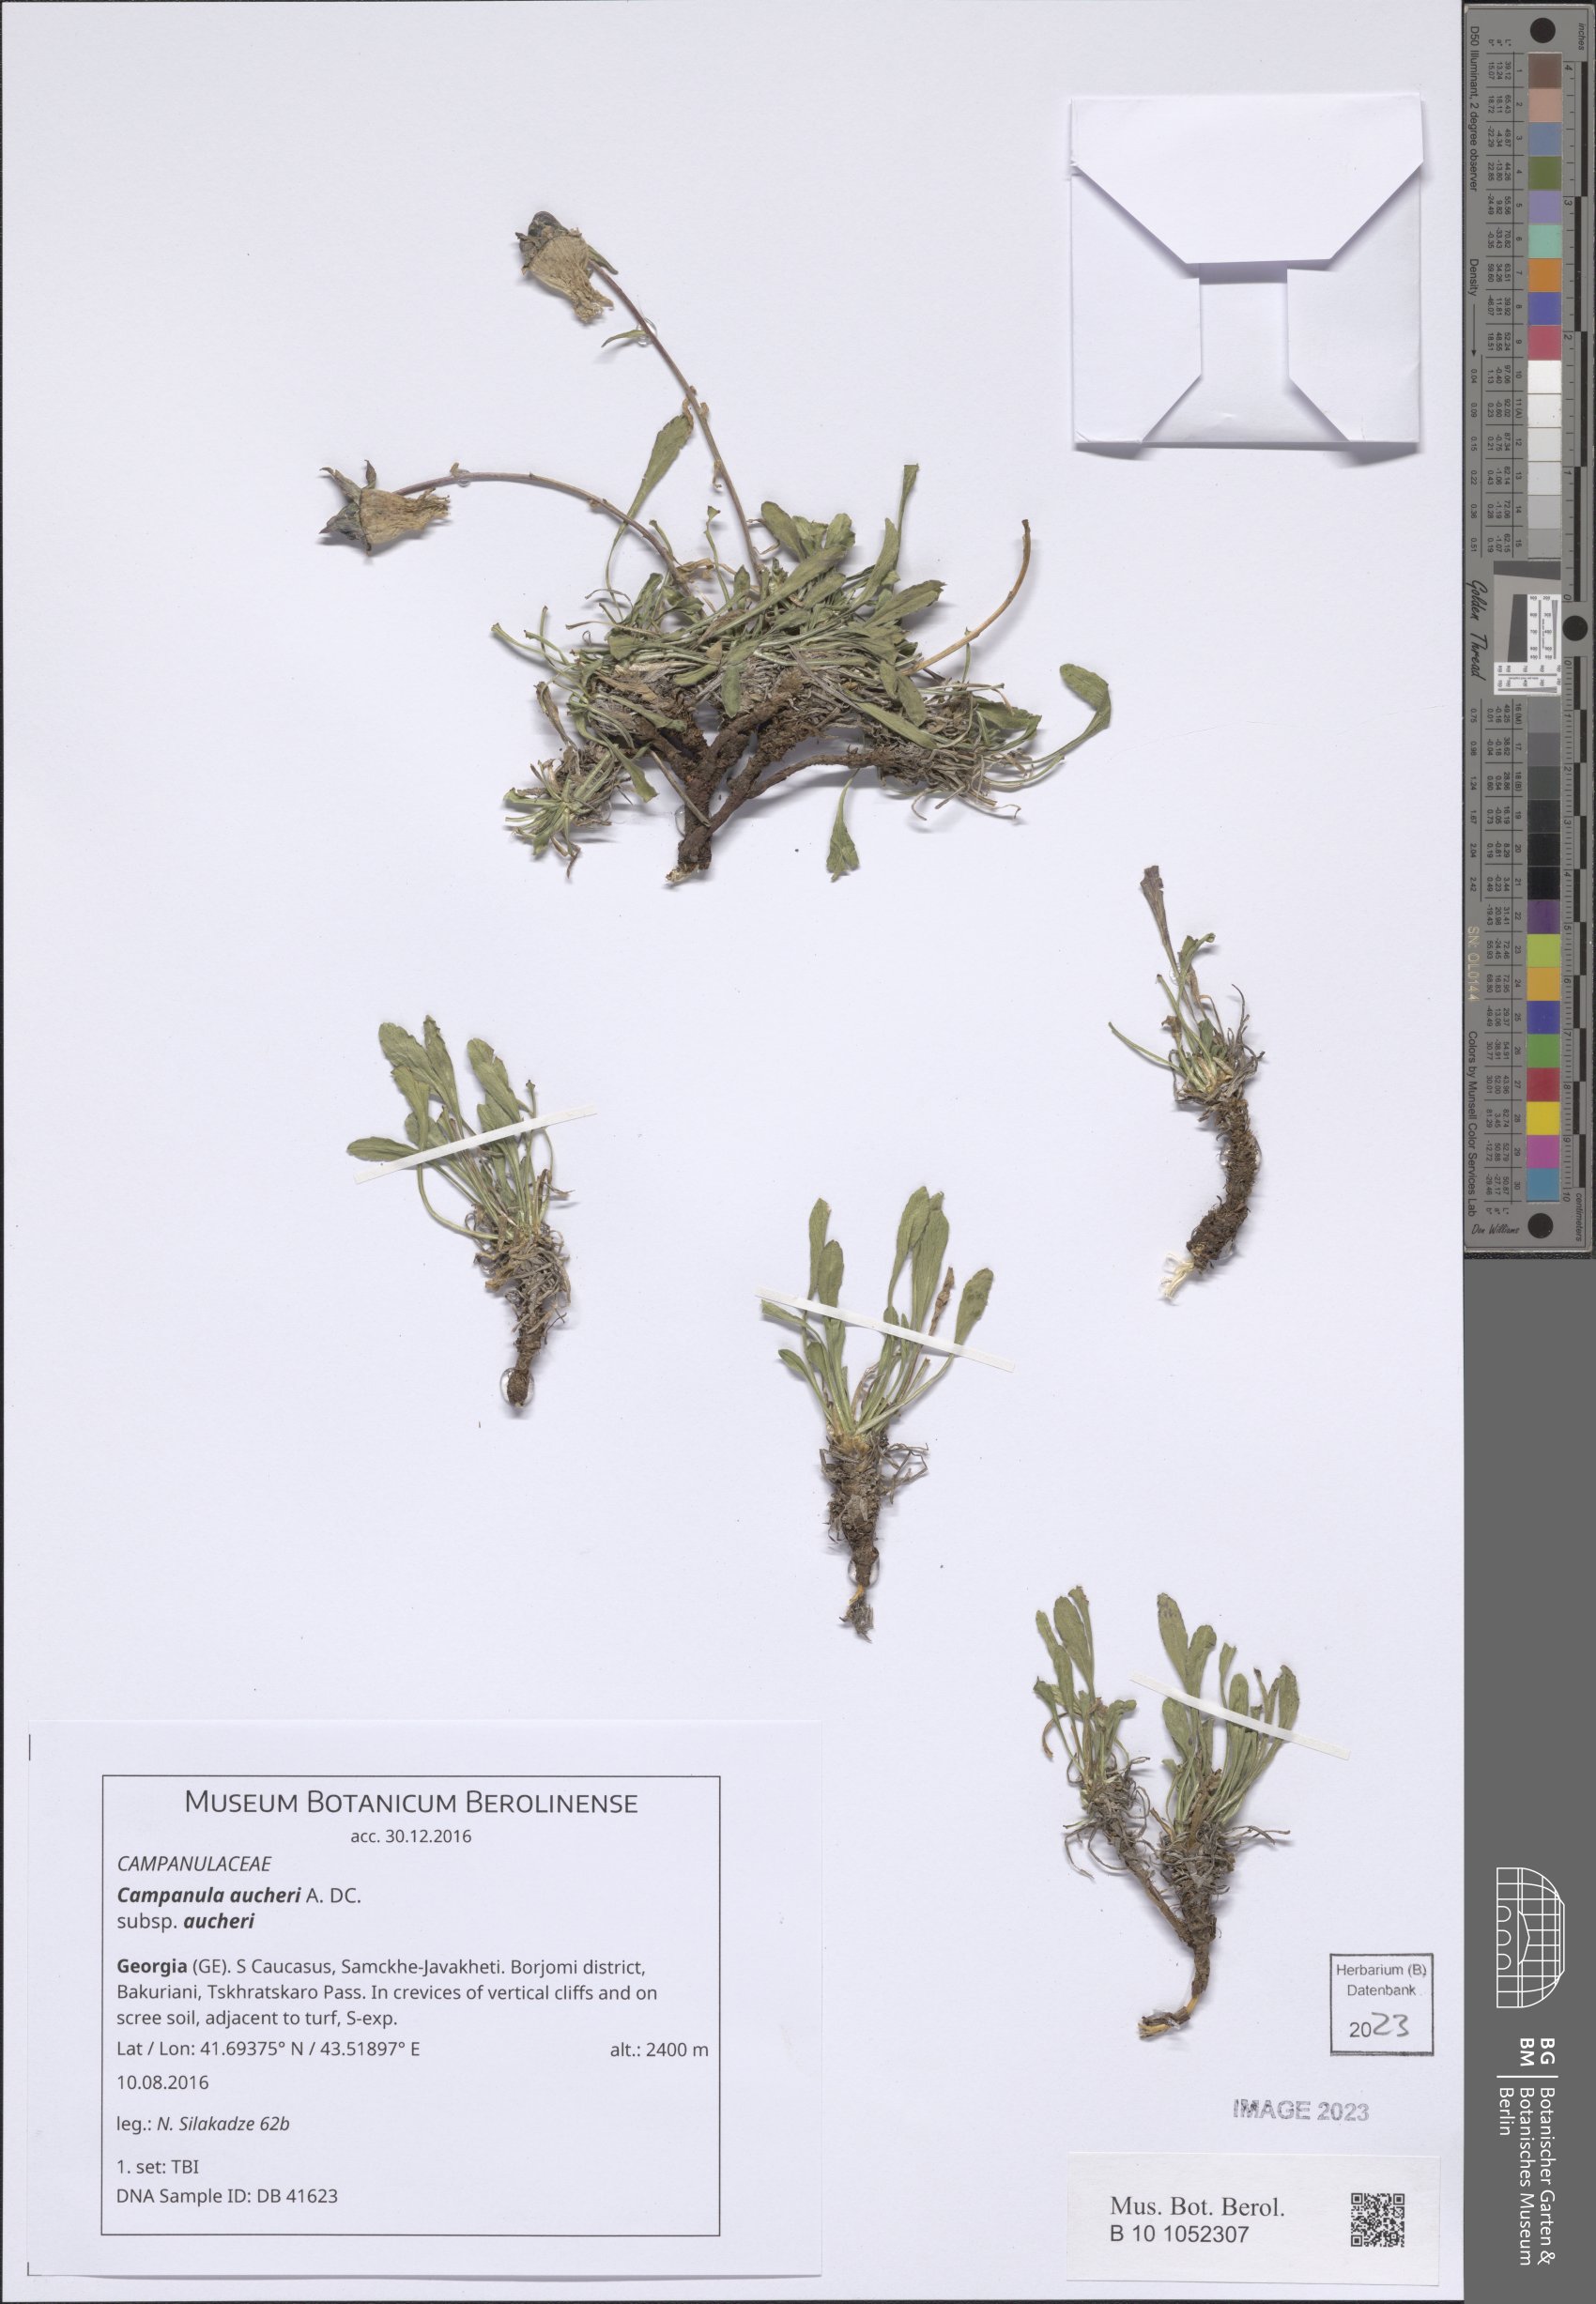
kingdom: Plantae
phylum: Tracheophyta
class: Magnoliopsida
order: Asterales
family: Campanulaceae
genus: Campanula
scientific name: Campanula saxifraga
